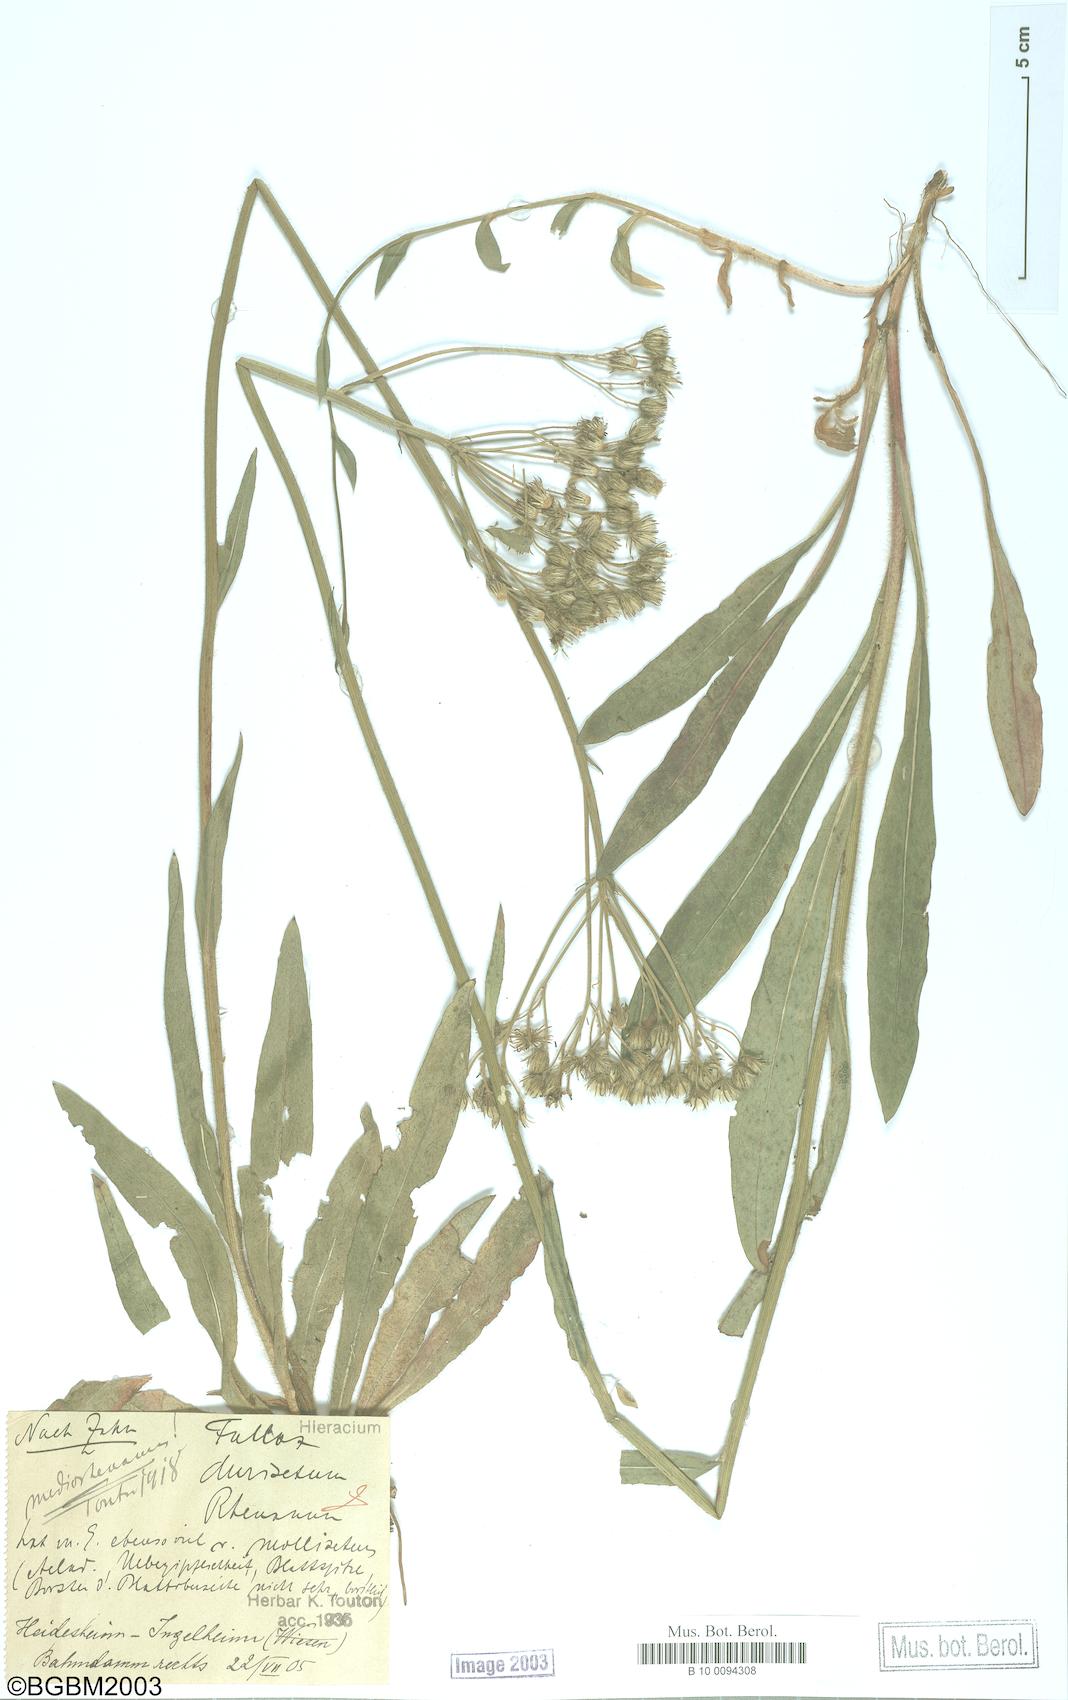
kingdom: Plantae
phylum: Tracheophyta
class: Magnoliopsida
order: Asterales
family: Asteraceae
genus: Hieracium
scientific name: Hieracium fallax
